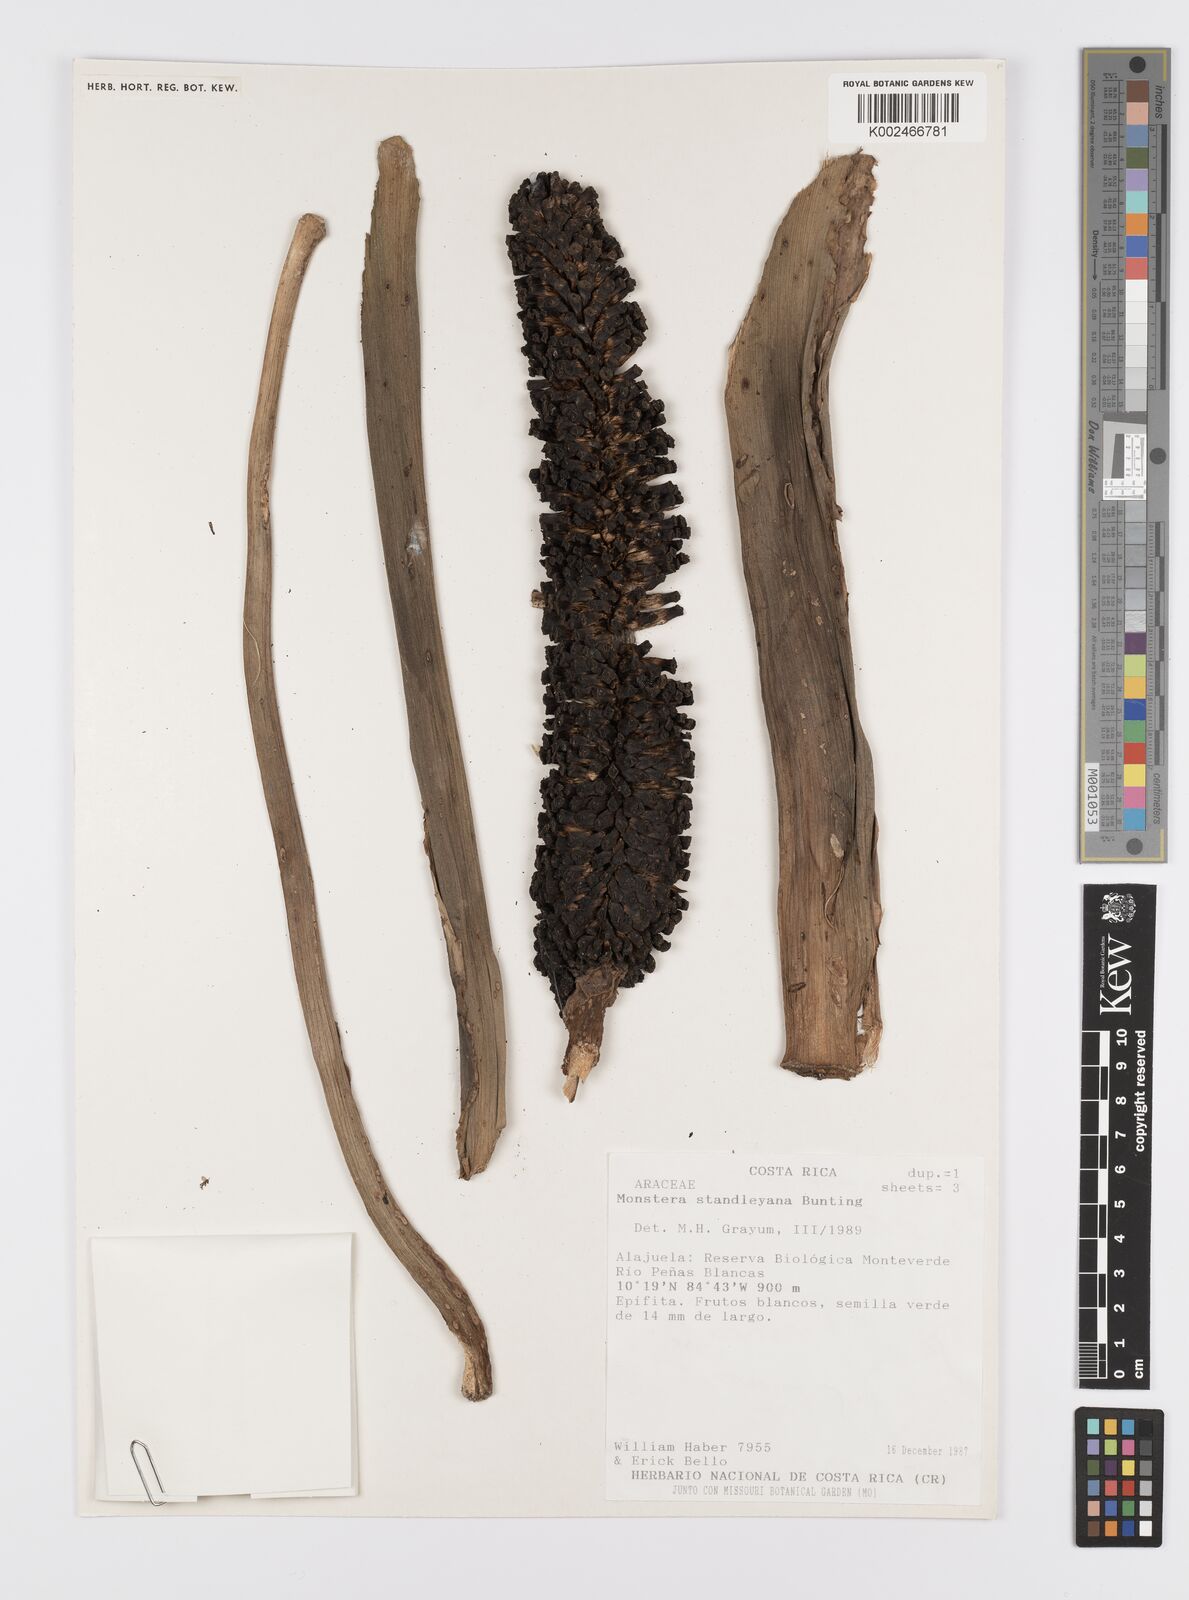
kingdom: Plantae
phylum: Tracheophyta
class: Liliopsida
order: Alismatales
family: Araceae
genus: Monstera
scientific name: Monstera standleyana
